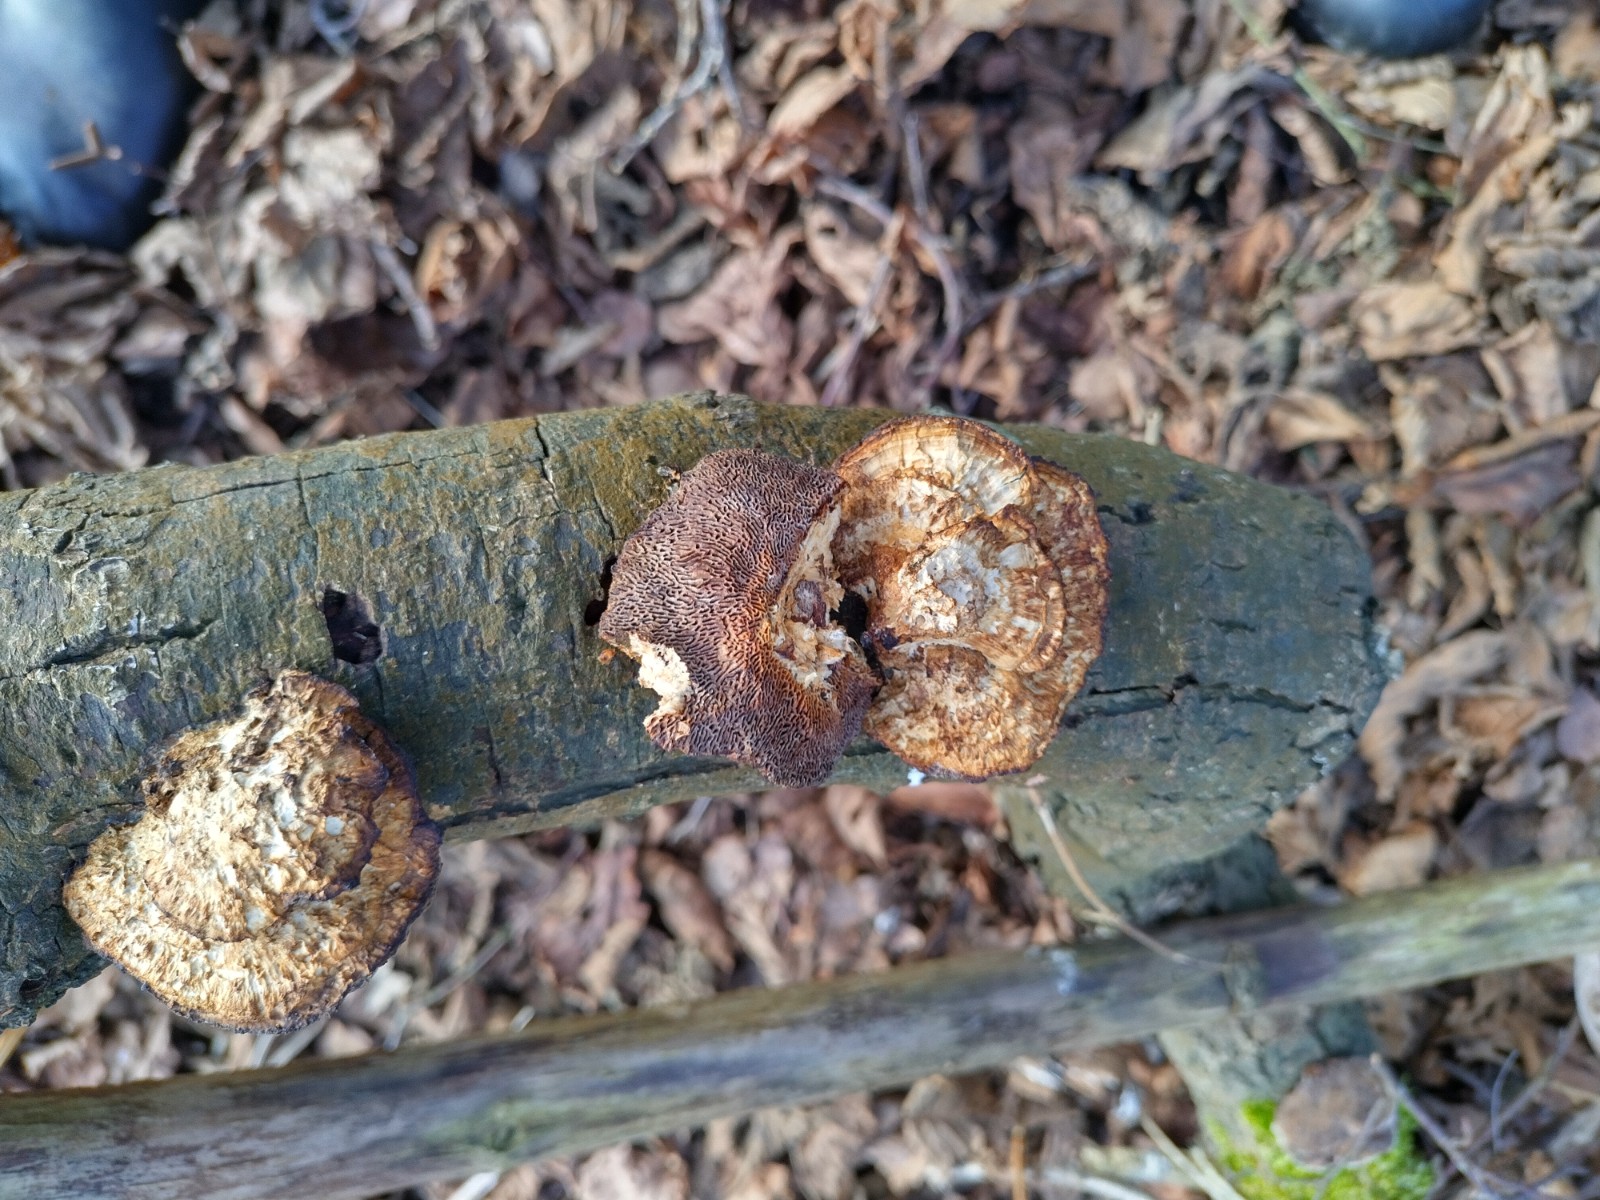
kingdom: Fungi
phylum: Basidiomycota
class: Agaricomycetes
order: Polyporales
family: Polyporaceae
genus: Daedaleopsis
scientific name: Daedaleopsis confragosa
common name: rødmende læderporesvamp
